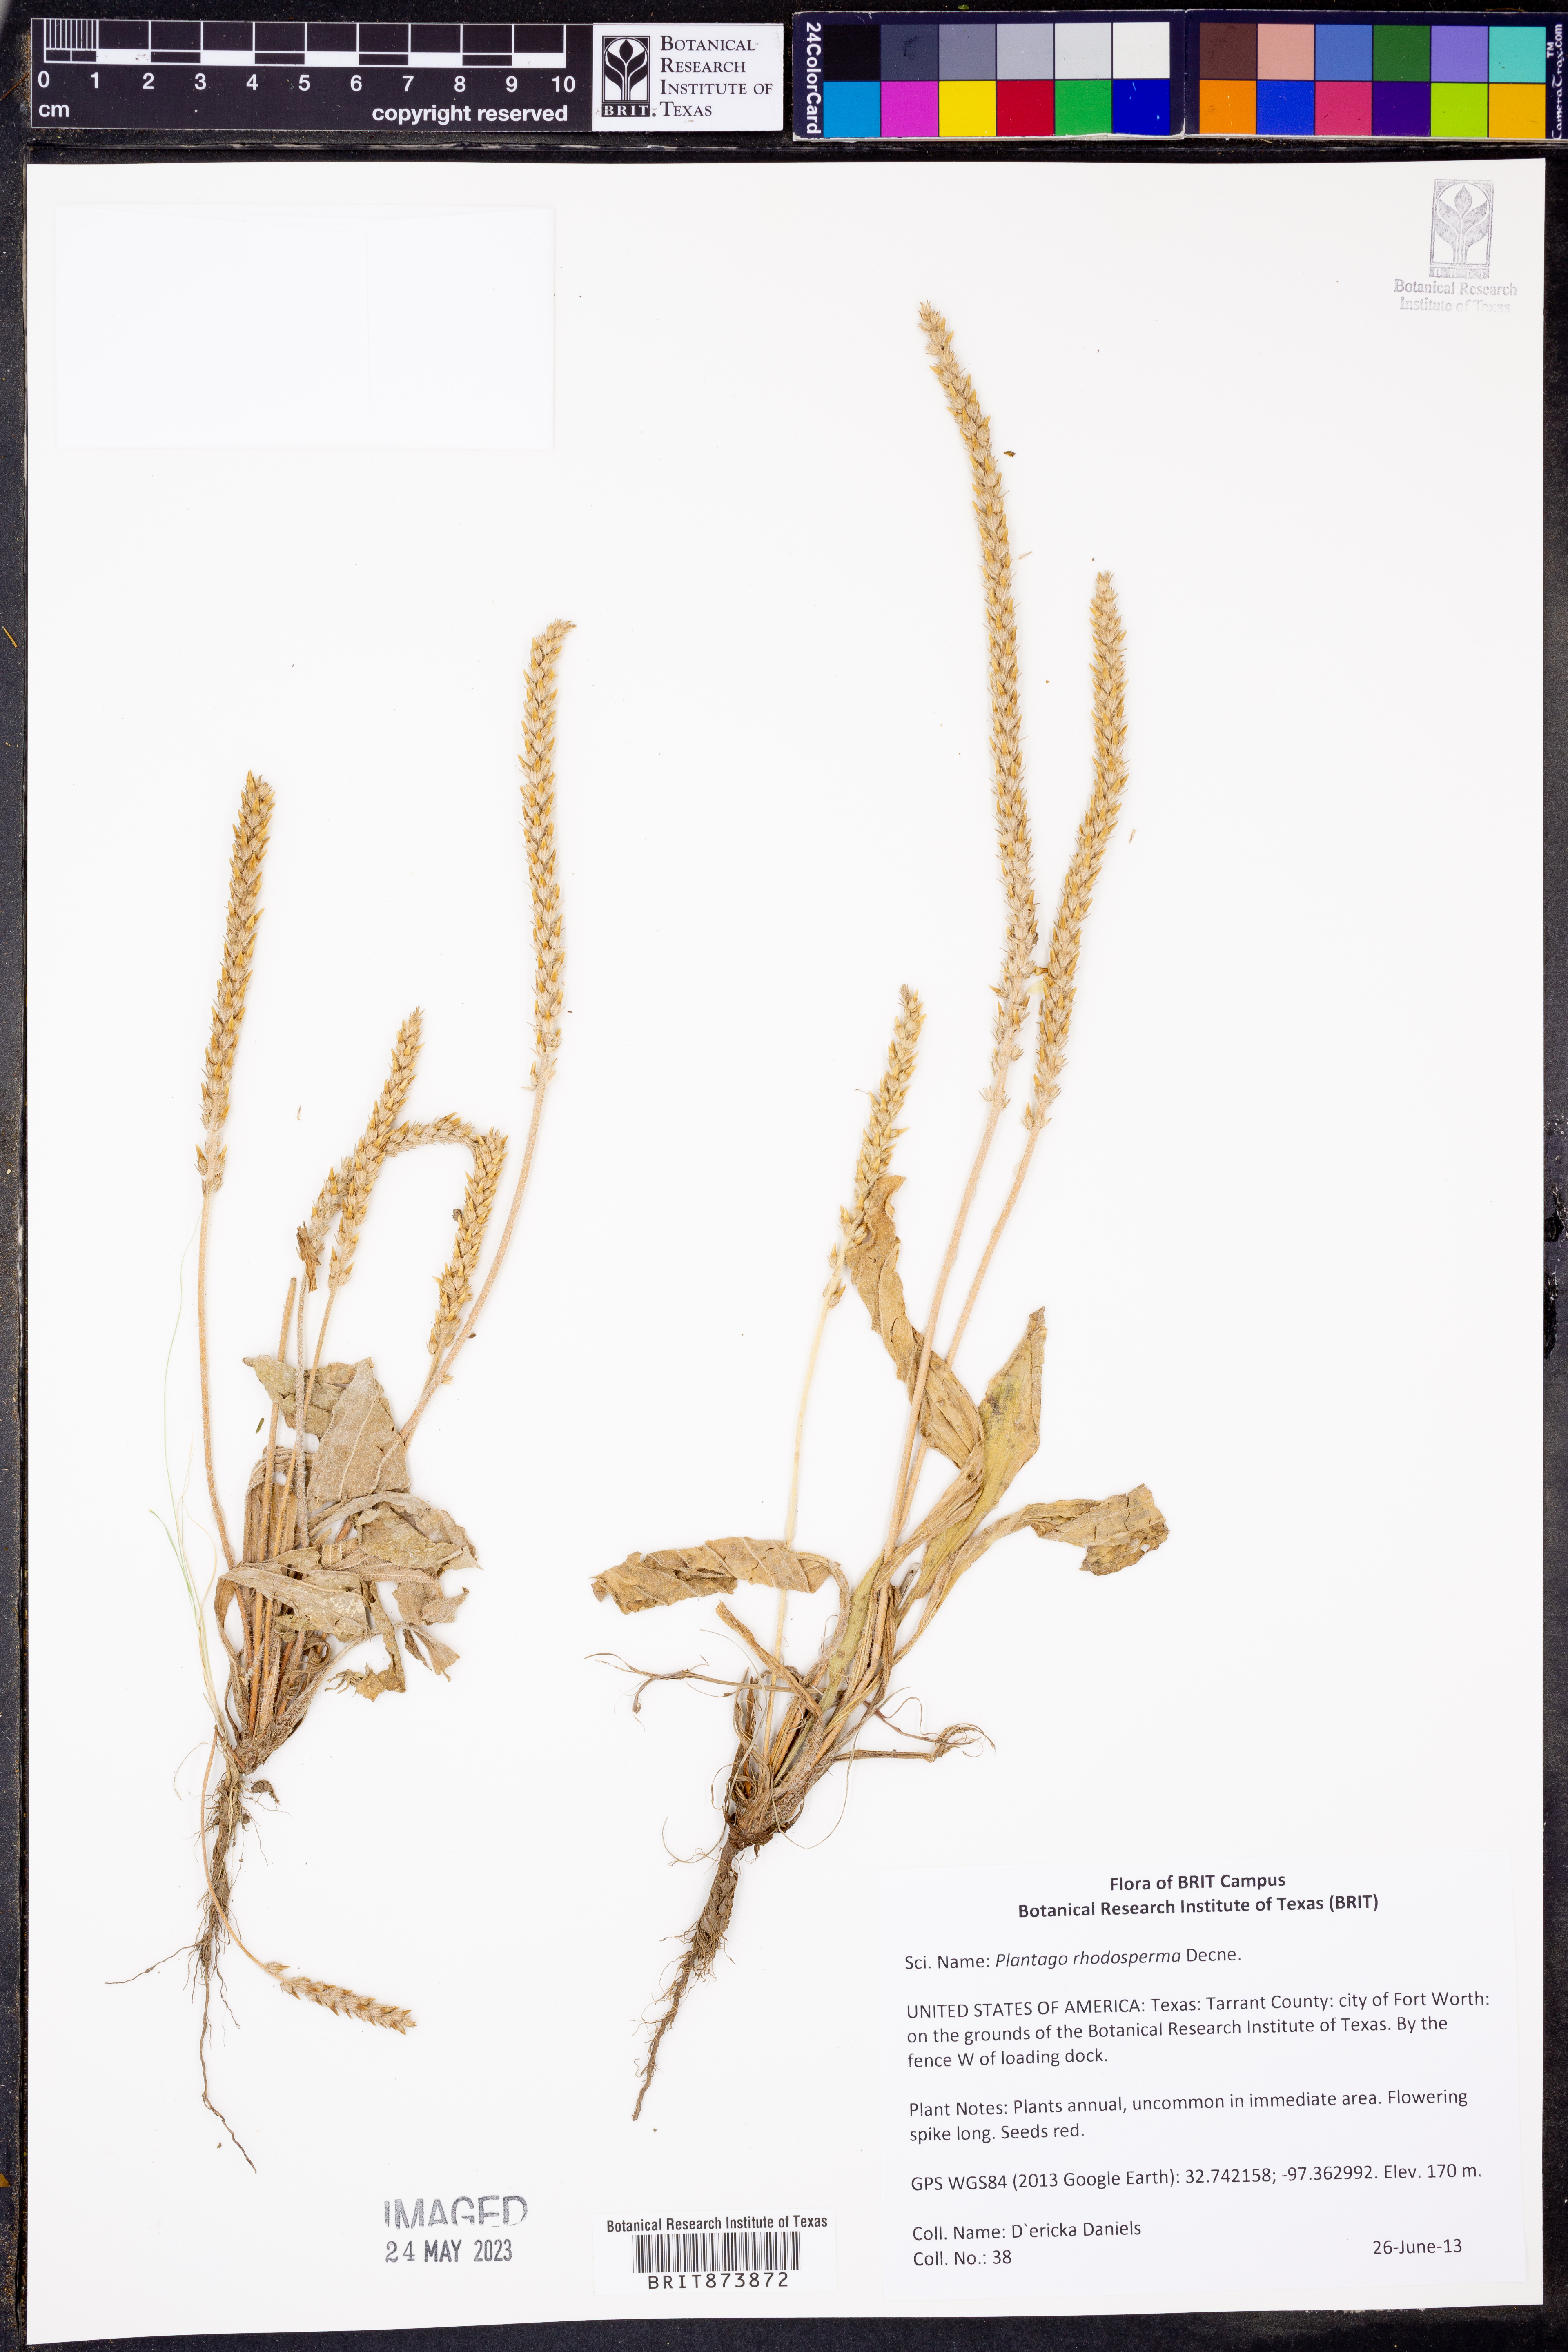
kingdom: Plantae
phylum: Tracheophyta
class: Magnoliopsida
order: Lamiales
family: Plantaginaceae
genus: Plantago
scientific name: Plantago rhodosperma
